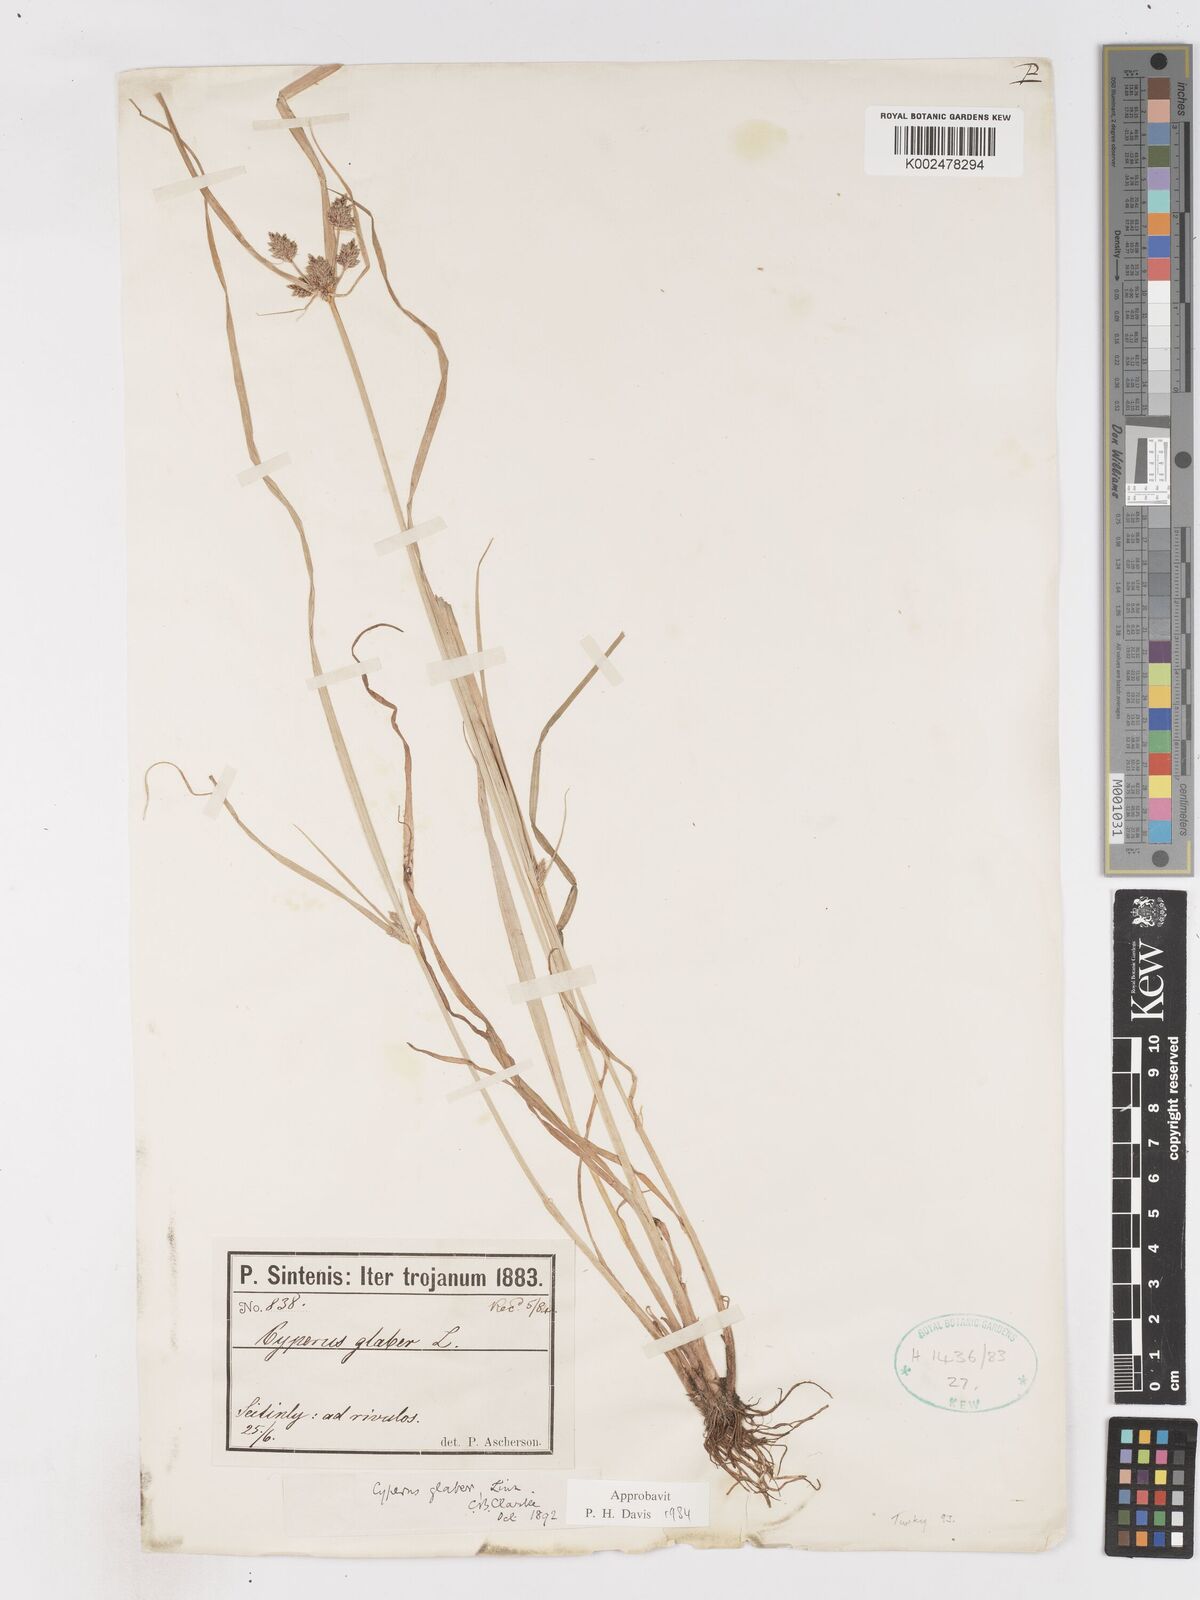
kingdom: Plantae
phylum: Tracheophyta
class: Liliopsida
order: Poales
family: Cyperaceae
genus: Cyperus
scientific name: Cyperus glaber
